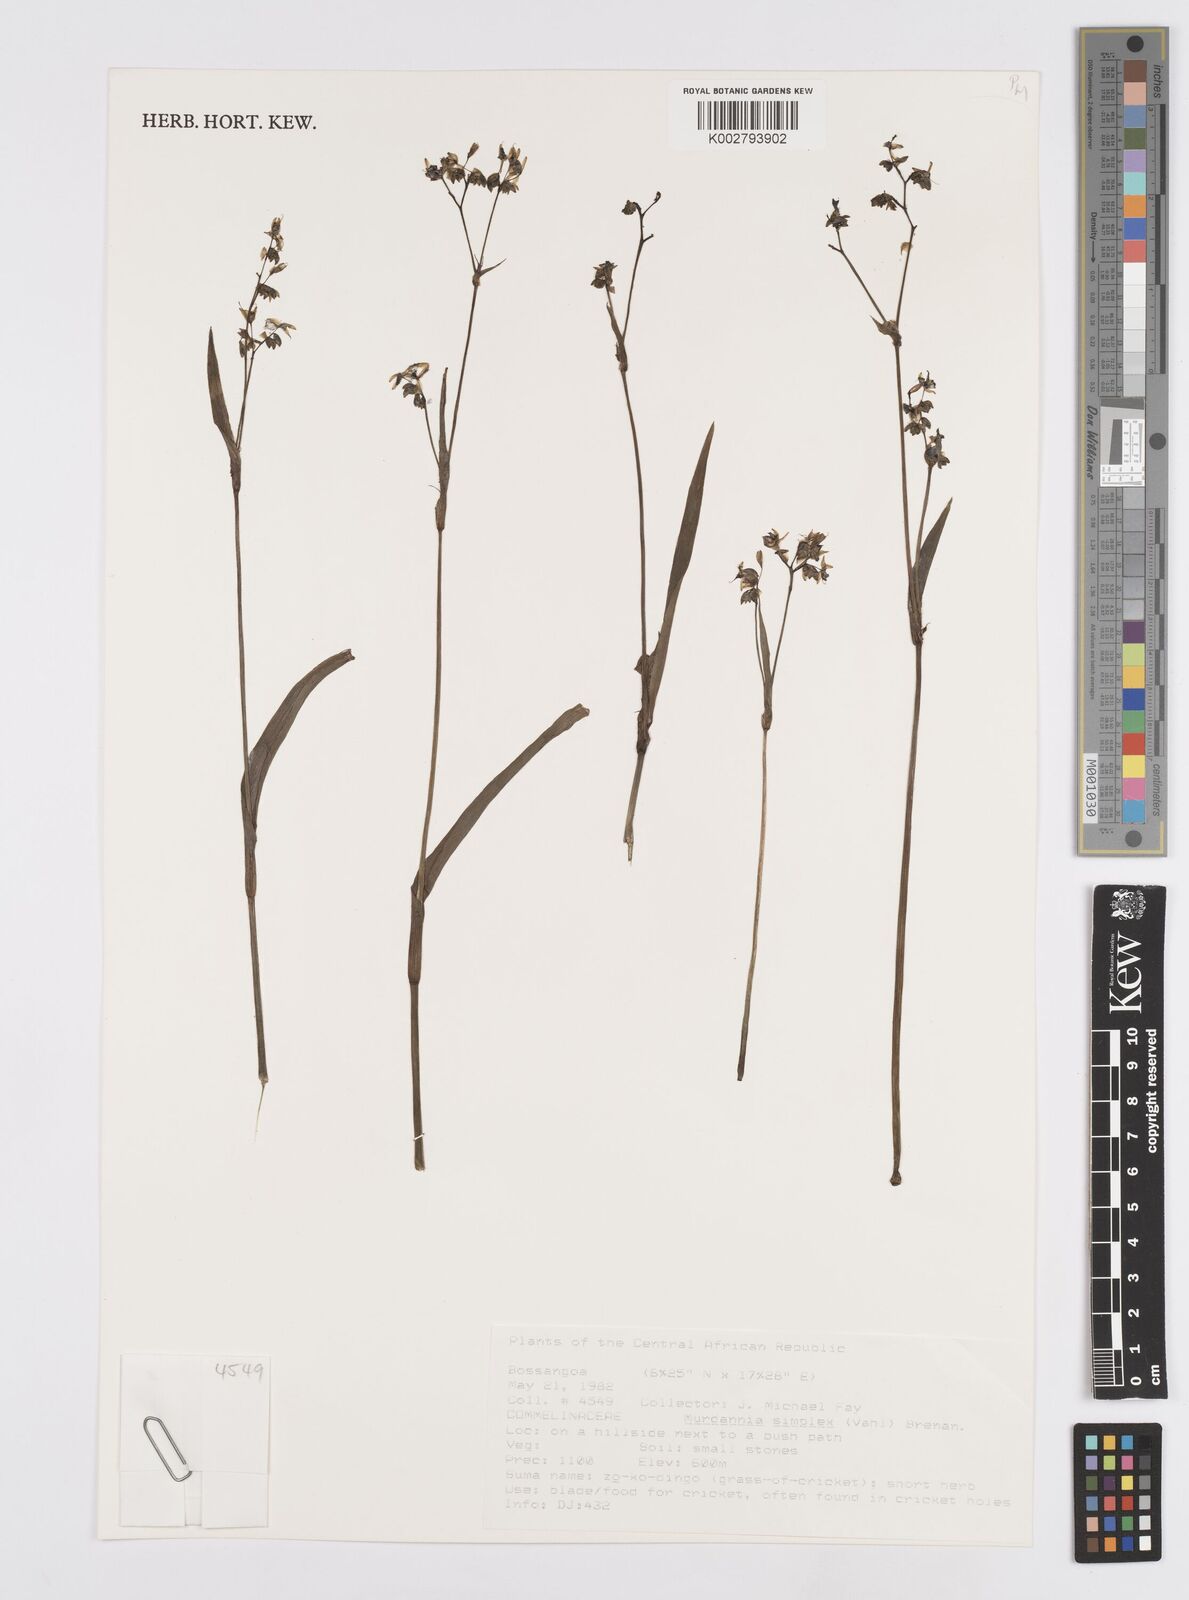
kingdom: Plantae
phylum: Tracheophyta
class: Liliopsida
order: Commelinales
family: Commelinaceae
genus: Murdannia
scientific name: Murdannia simplex
